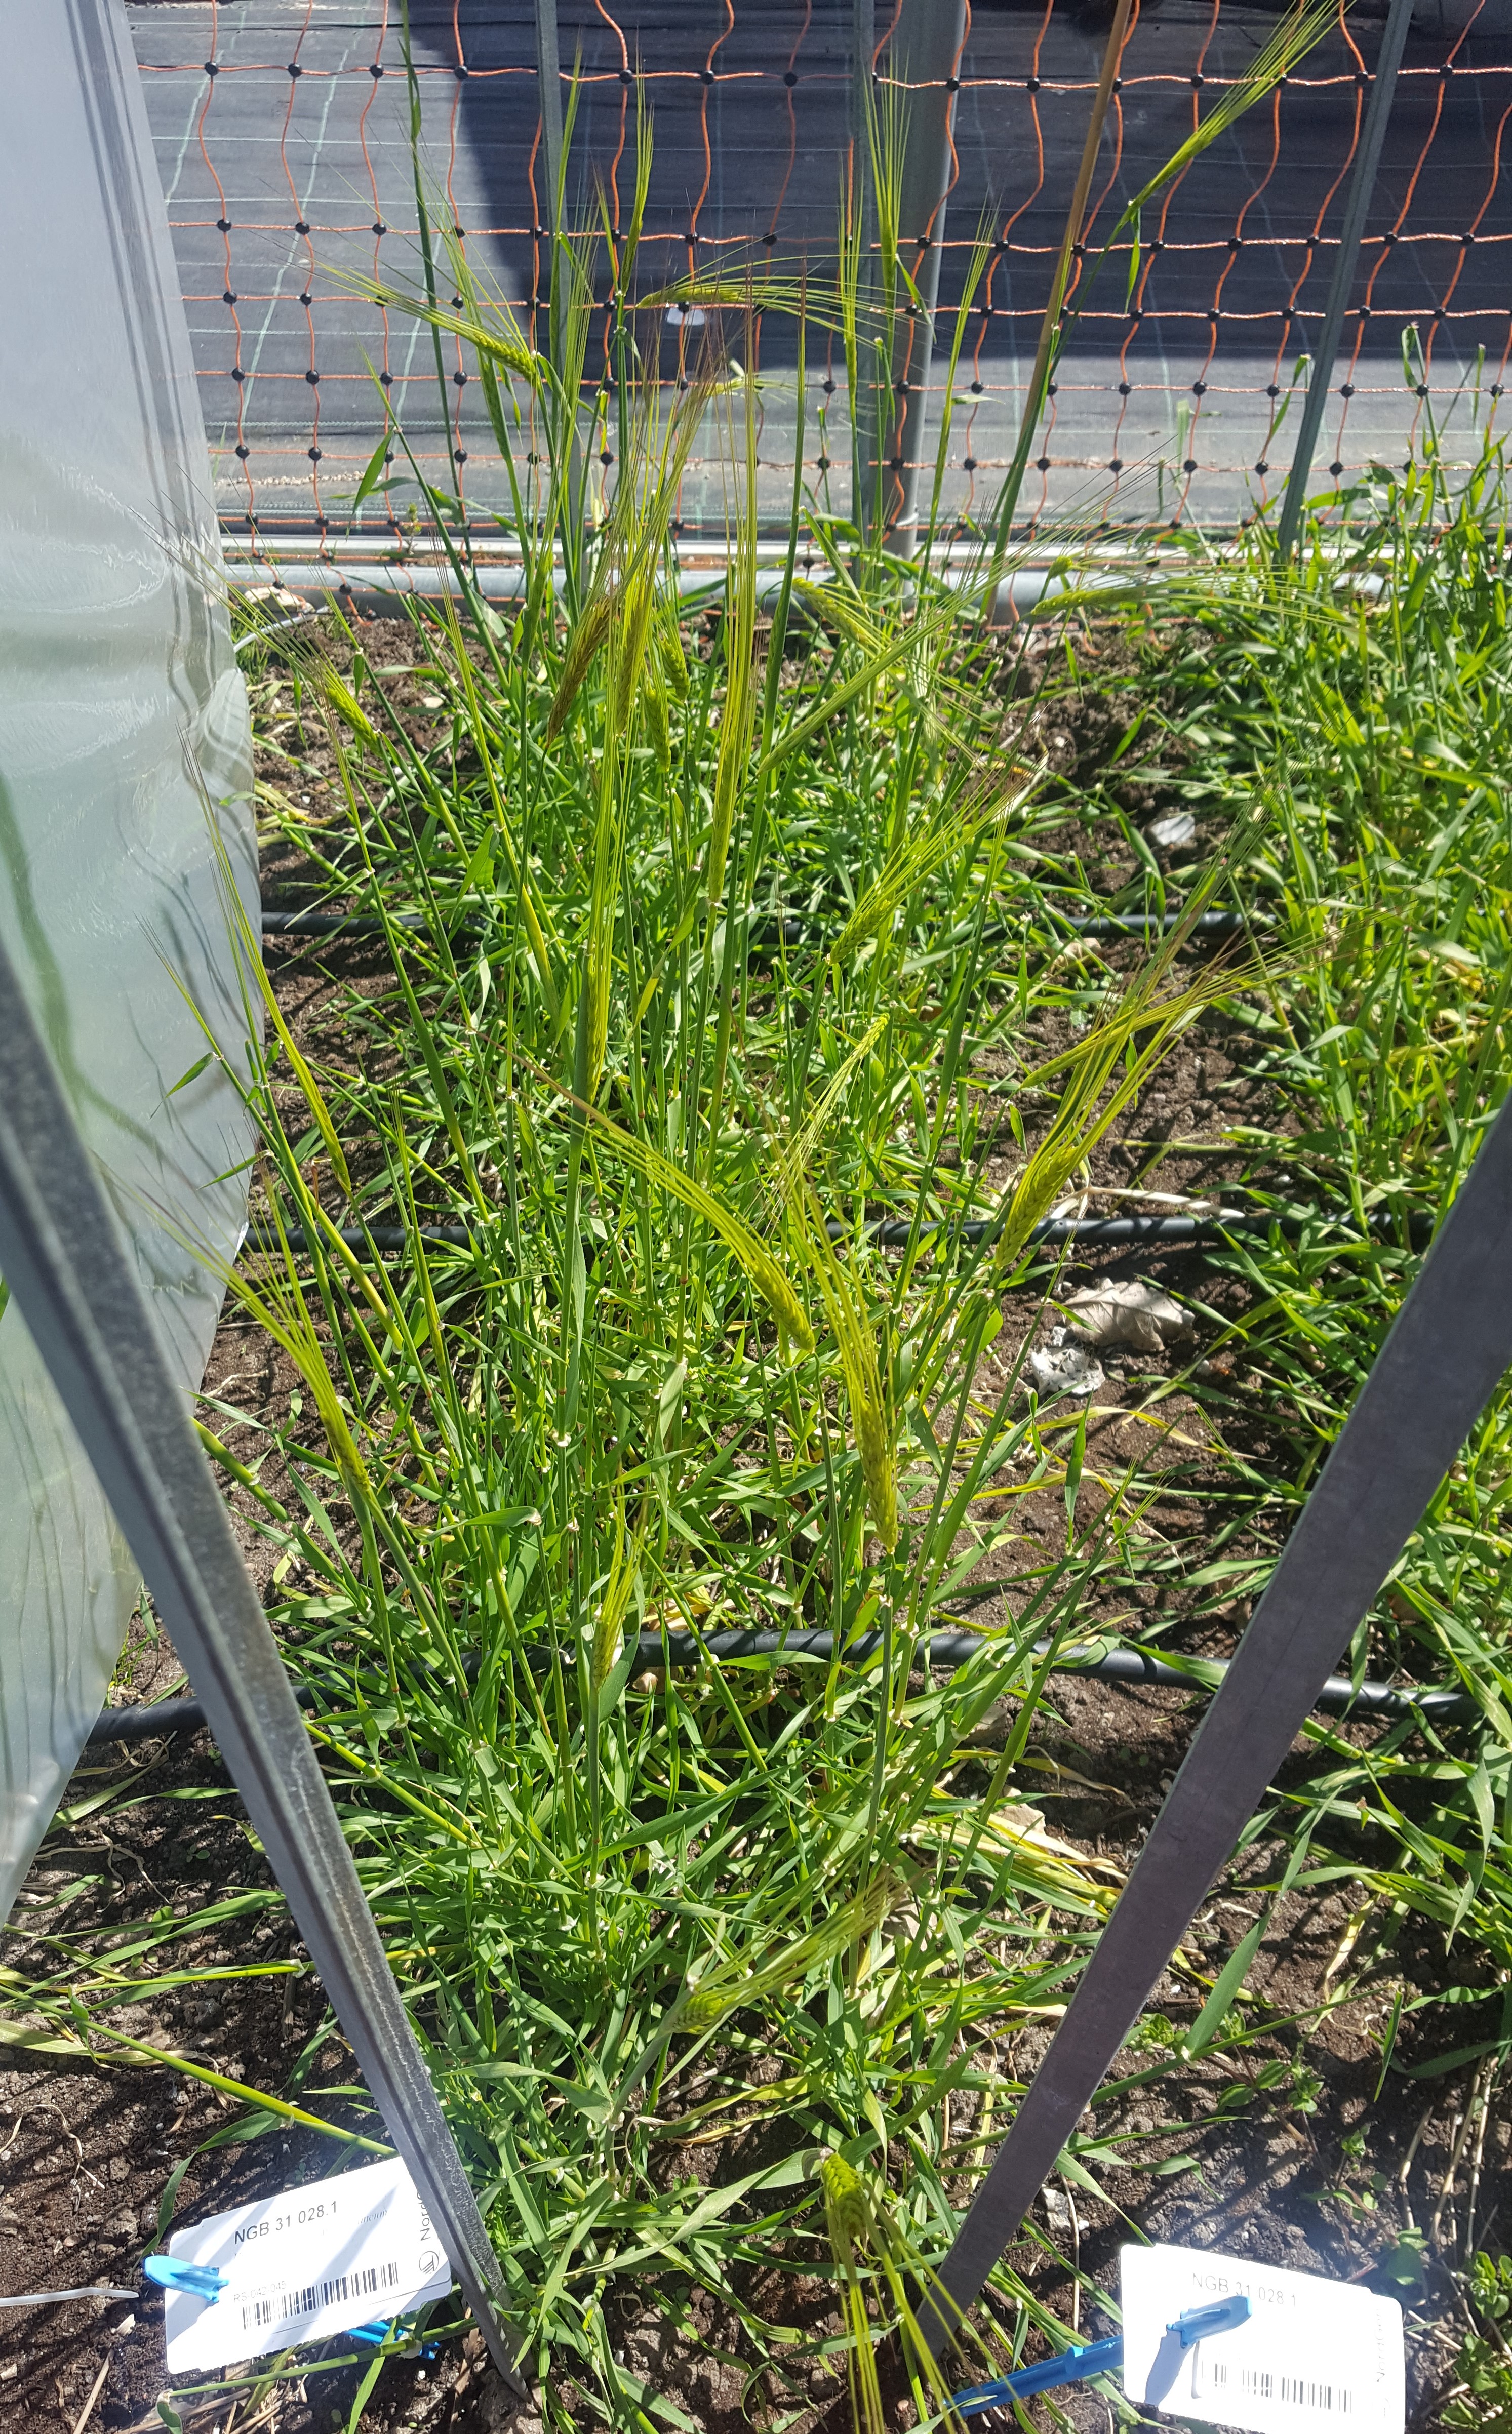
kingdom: Plantae
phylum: Tracheophyta
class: Liliopsida
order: Poales
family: Poaceae
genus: Hordeum
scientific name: Hordeum spontaneum
